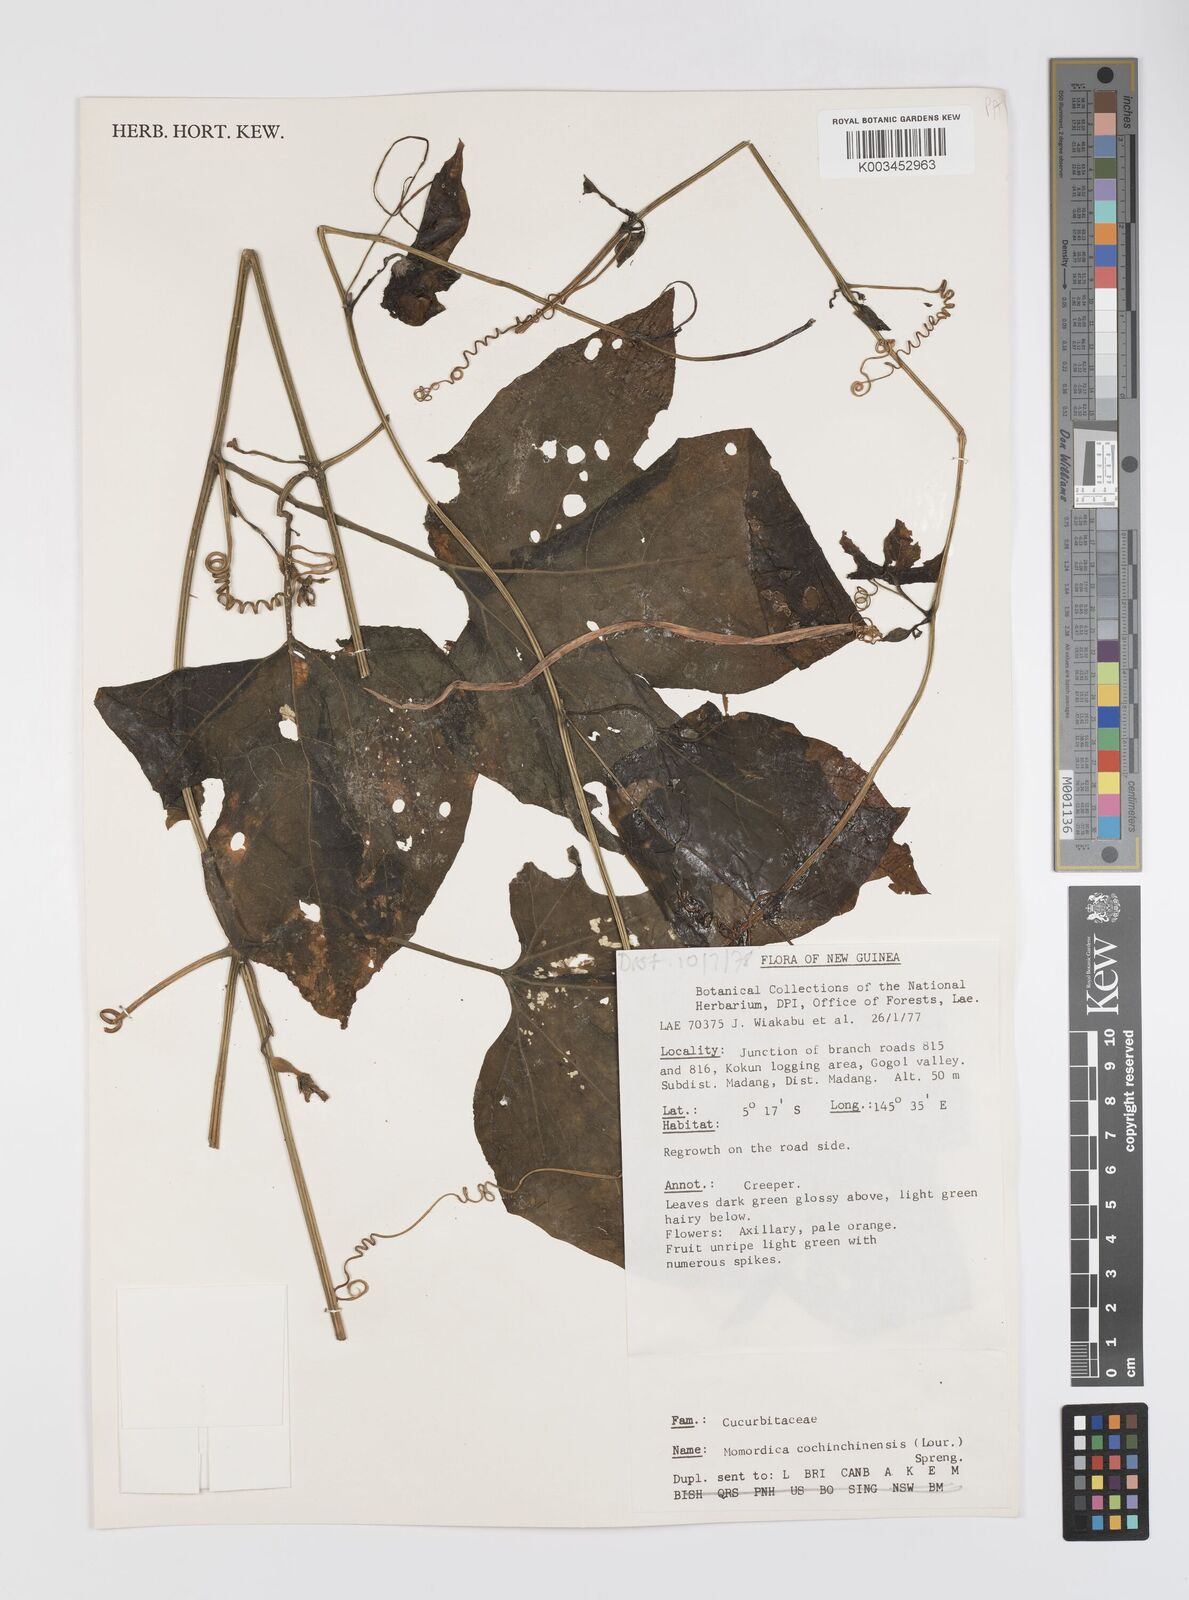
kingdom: Plantae
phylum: Tracheophyta
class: Magnoliopsida
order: Cucurbitales
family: Cucurbitaceae
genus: Momordica
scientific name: Momordica cochinchinensis
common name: Chinese bitter-cucumber
